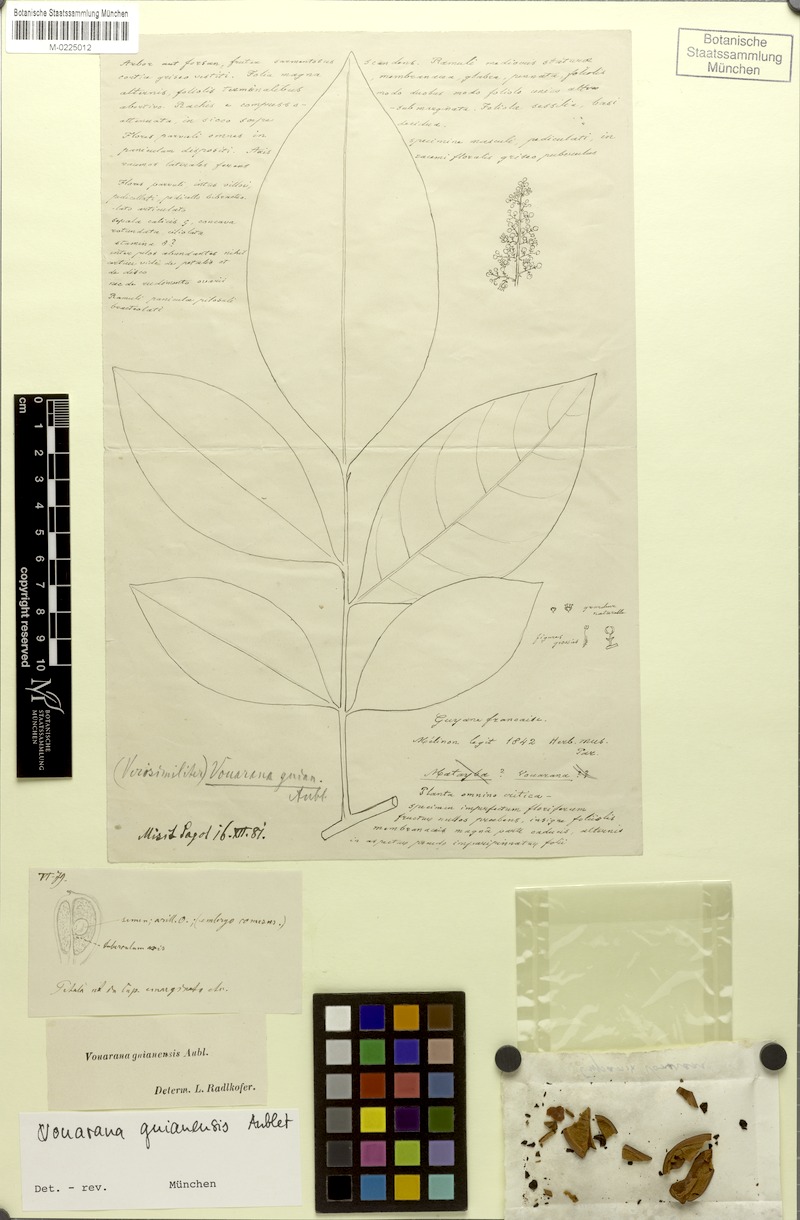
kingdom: Plantae
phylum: Tracheophyta
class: Magnoliopsida
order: Sapindales
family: Sapindaceae
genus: Vouarana
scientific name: Vouarana guianensis
